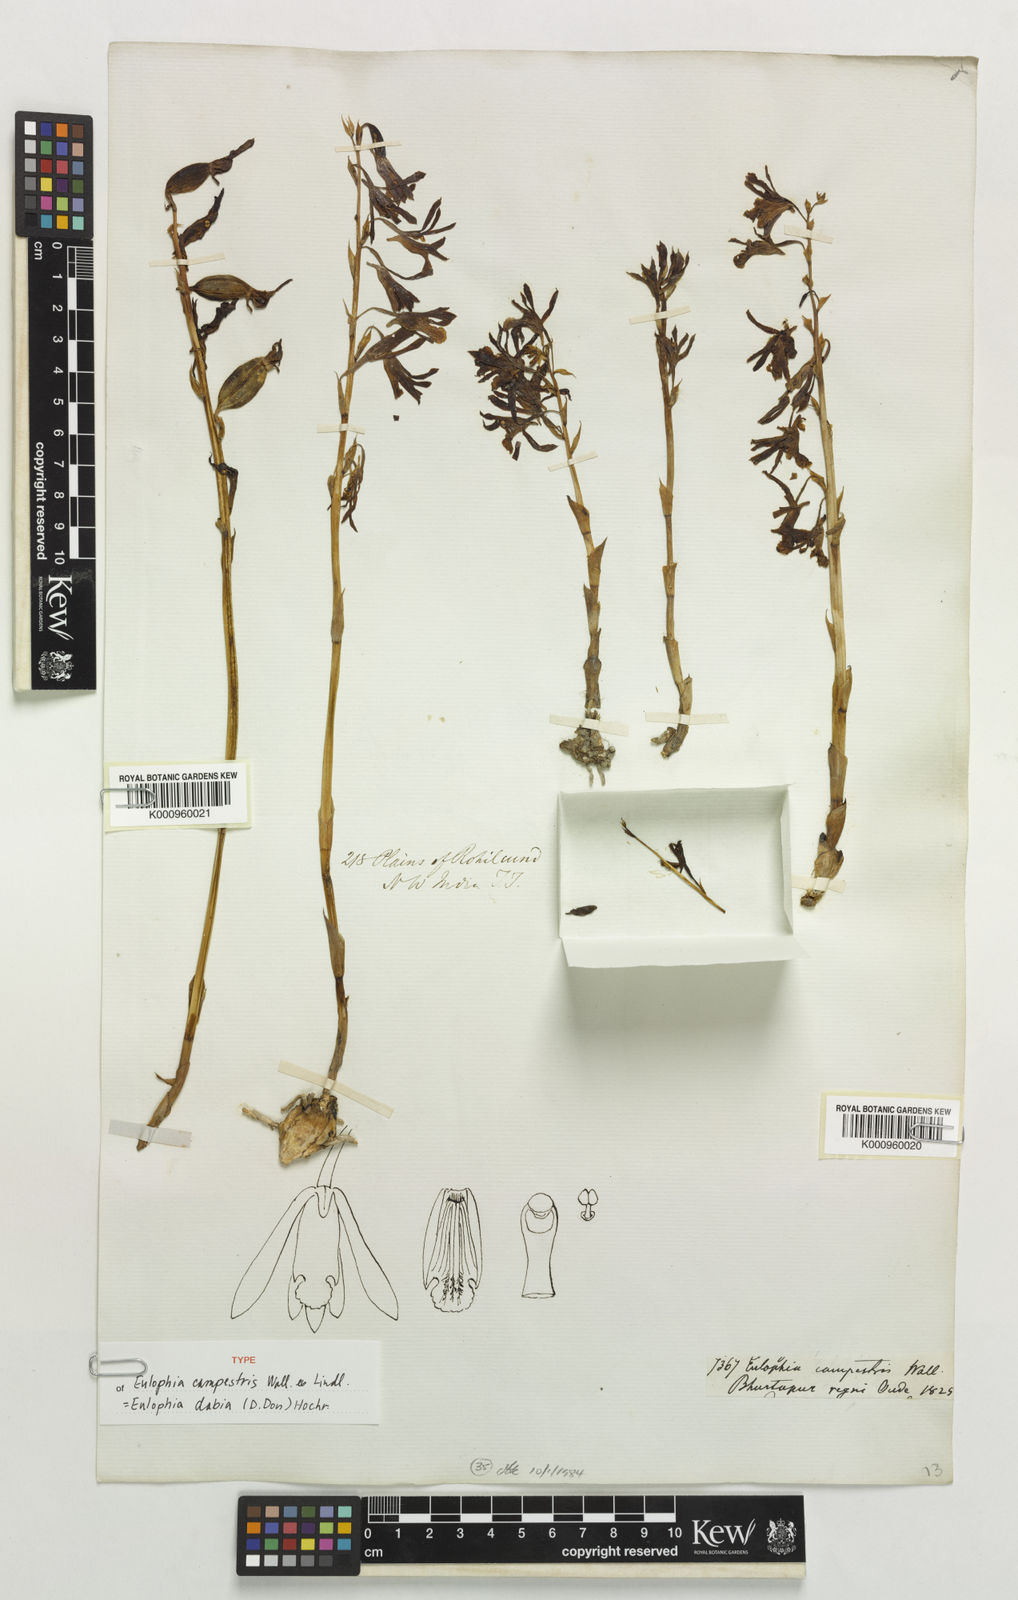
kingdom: Plantae
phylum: Tracheophyta
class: Liliopsida
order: Asparagales
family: Orchidaceae
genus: Eulophia
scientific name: Eulophia dabia
